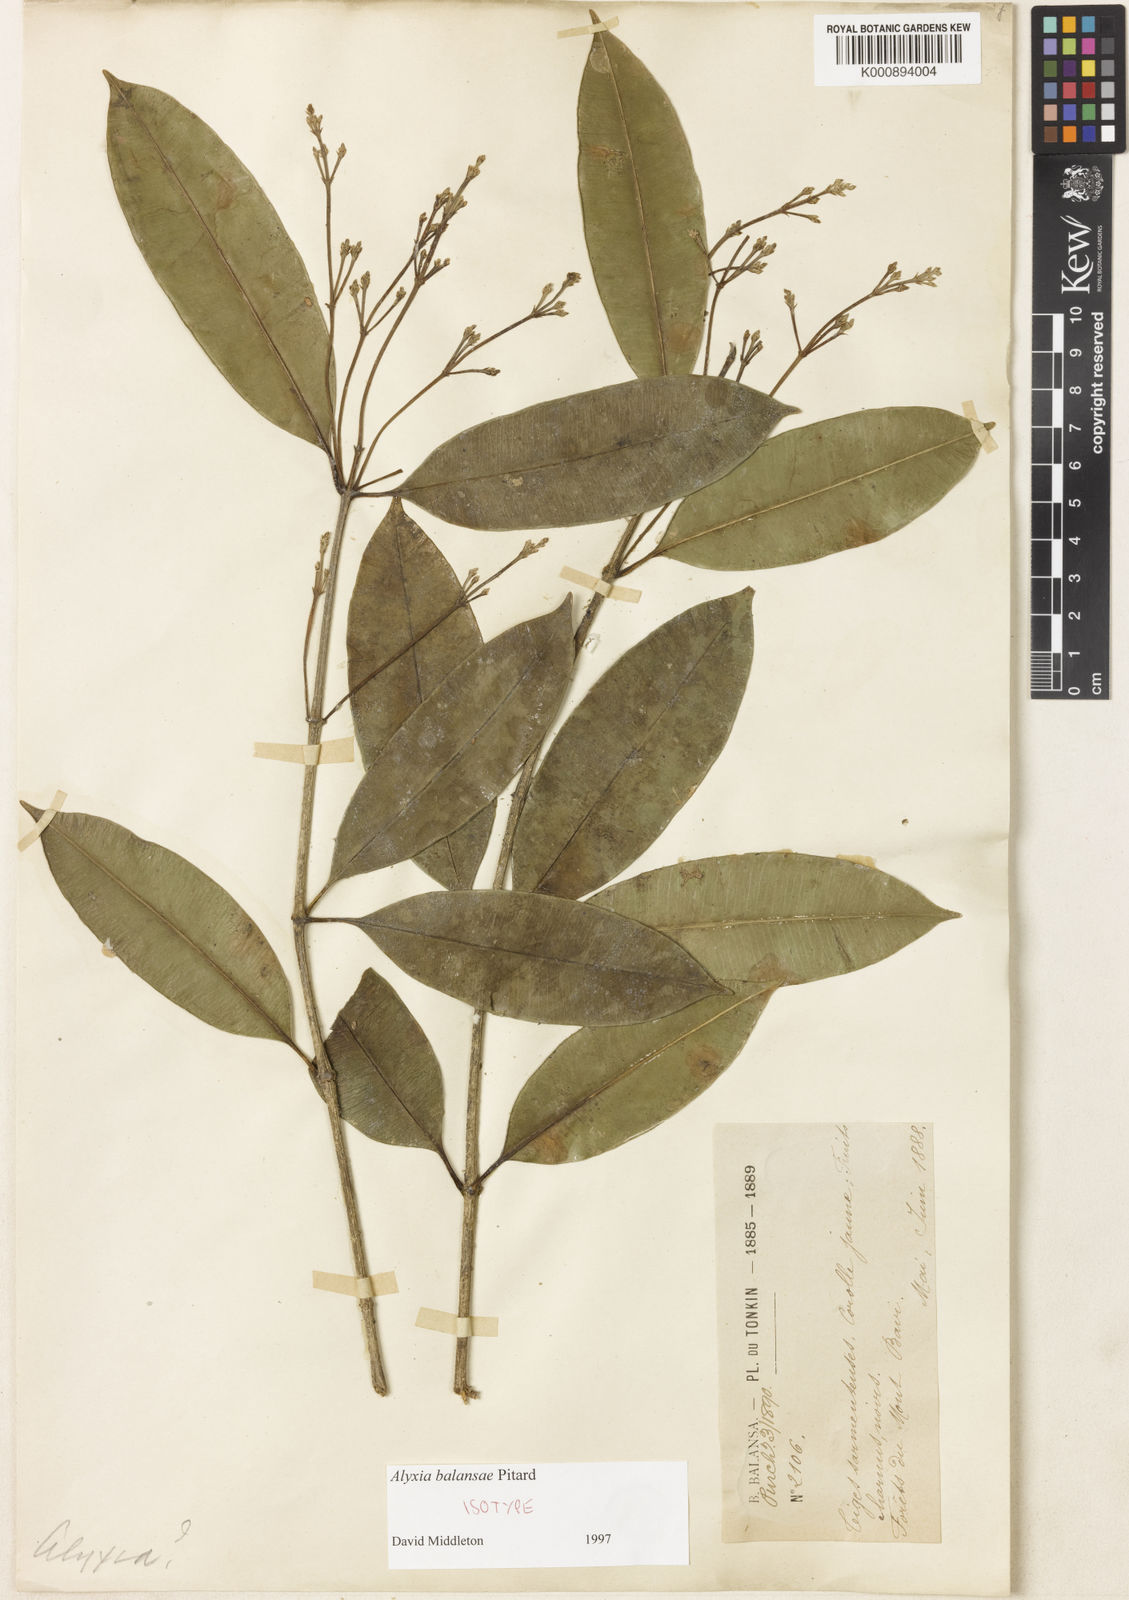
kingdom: Plantae
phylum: Tracheophyta
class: Magnoliopsida
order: Gentianales
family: Apocynaceae
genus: Alyxia
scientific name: Alyxia siamensis
